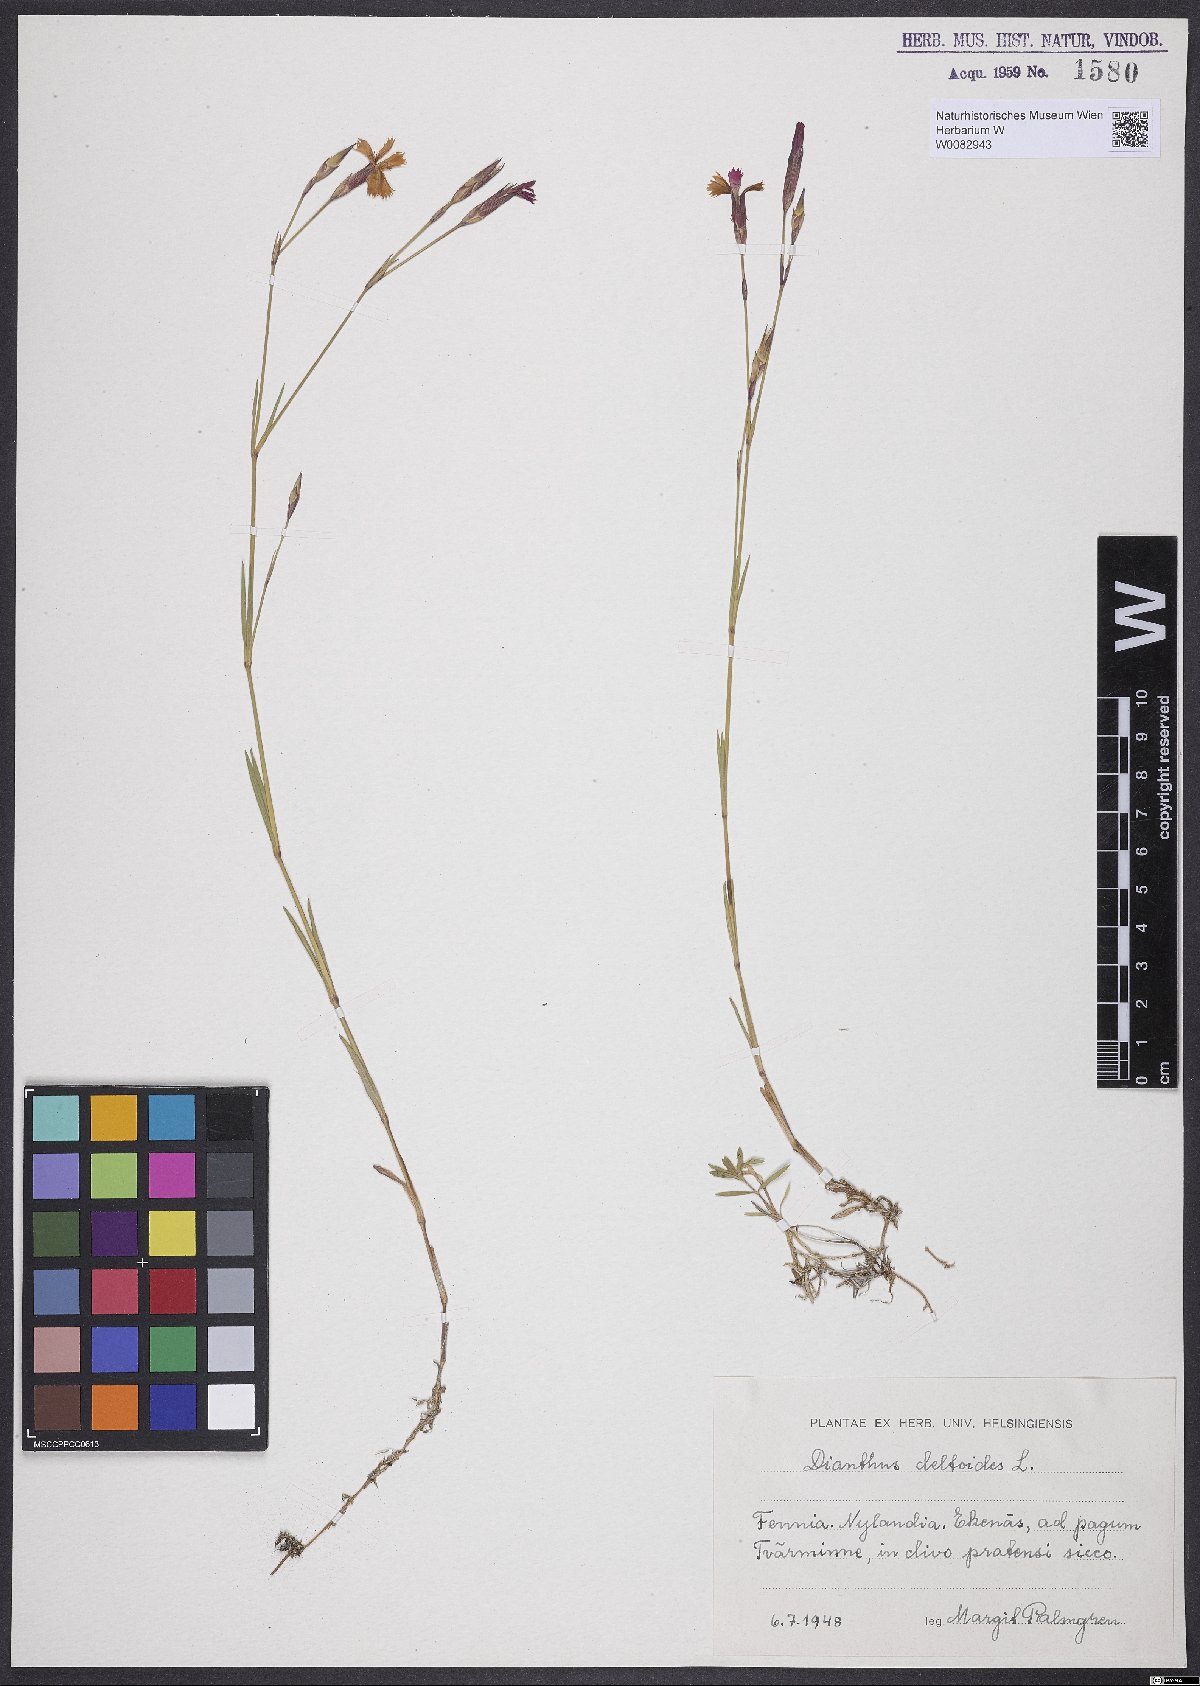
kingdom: Plantae
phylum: Tracheophyta
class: Magnoliopsida
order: Caryophyllales
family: Caryophyllaceae
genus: Dianthus
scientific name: Dianthus deltoides
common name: Maiden pink
